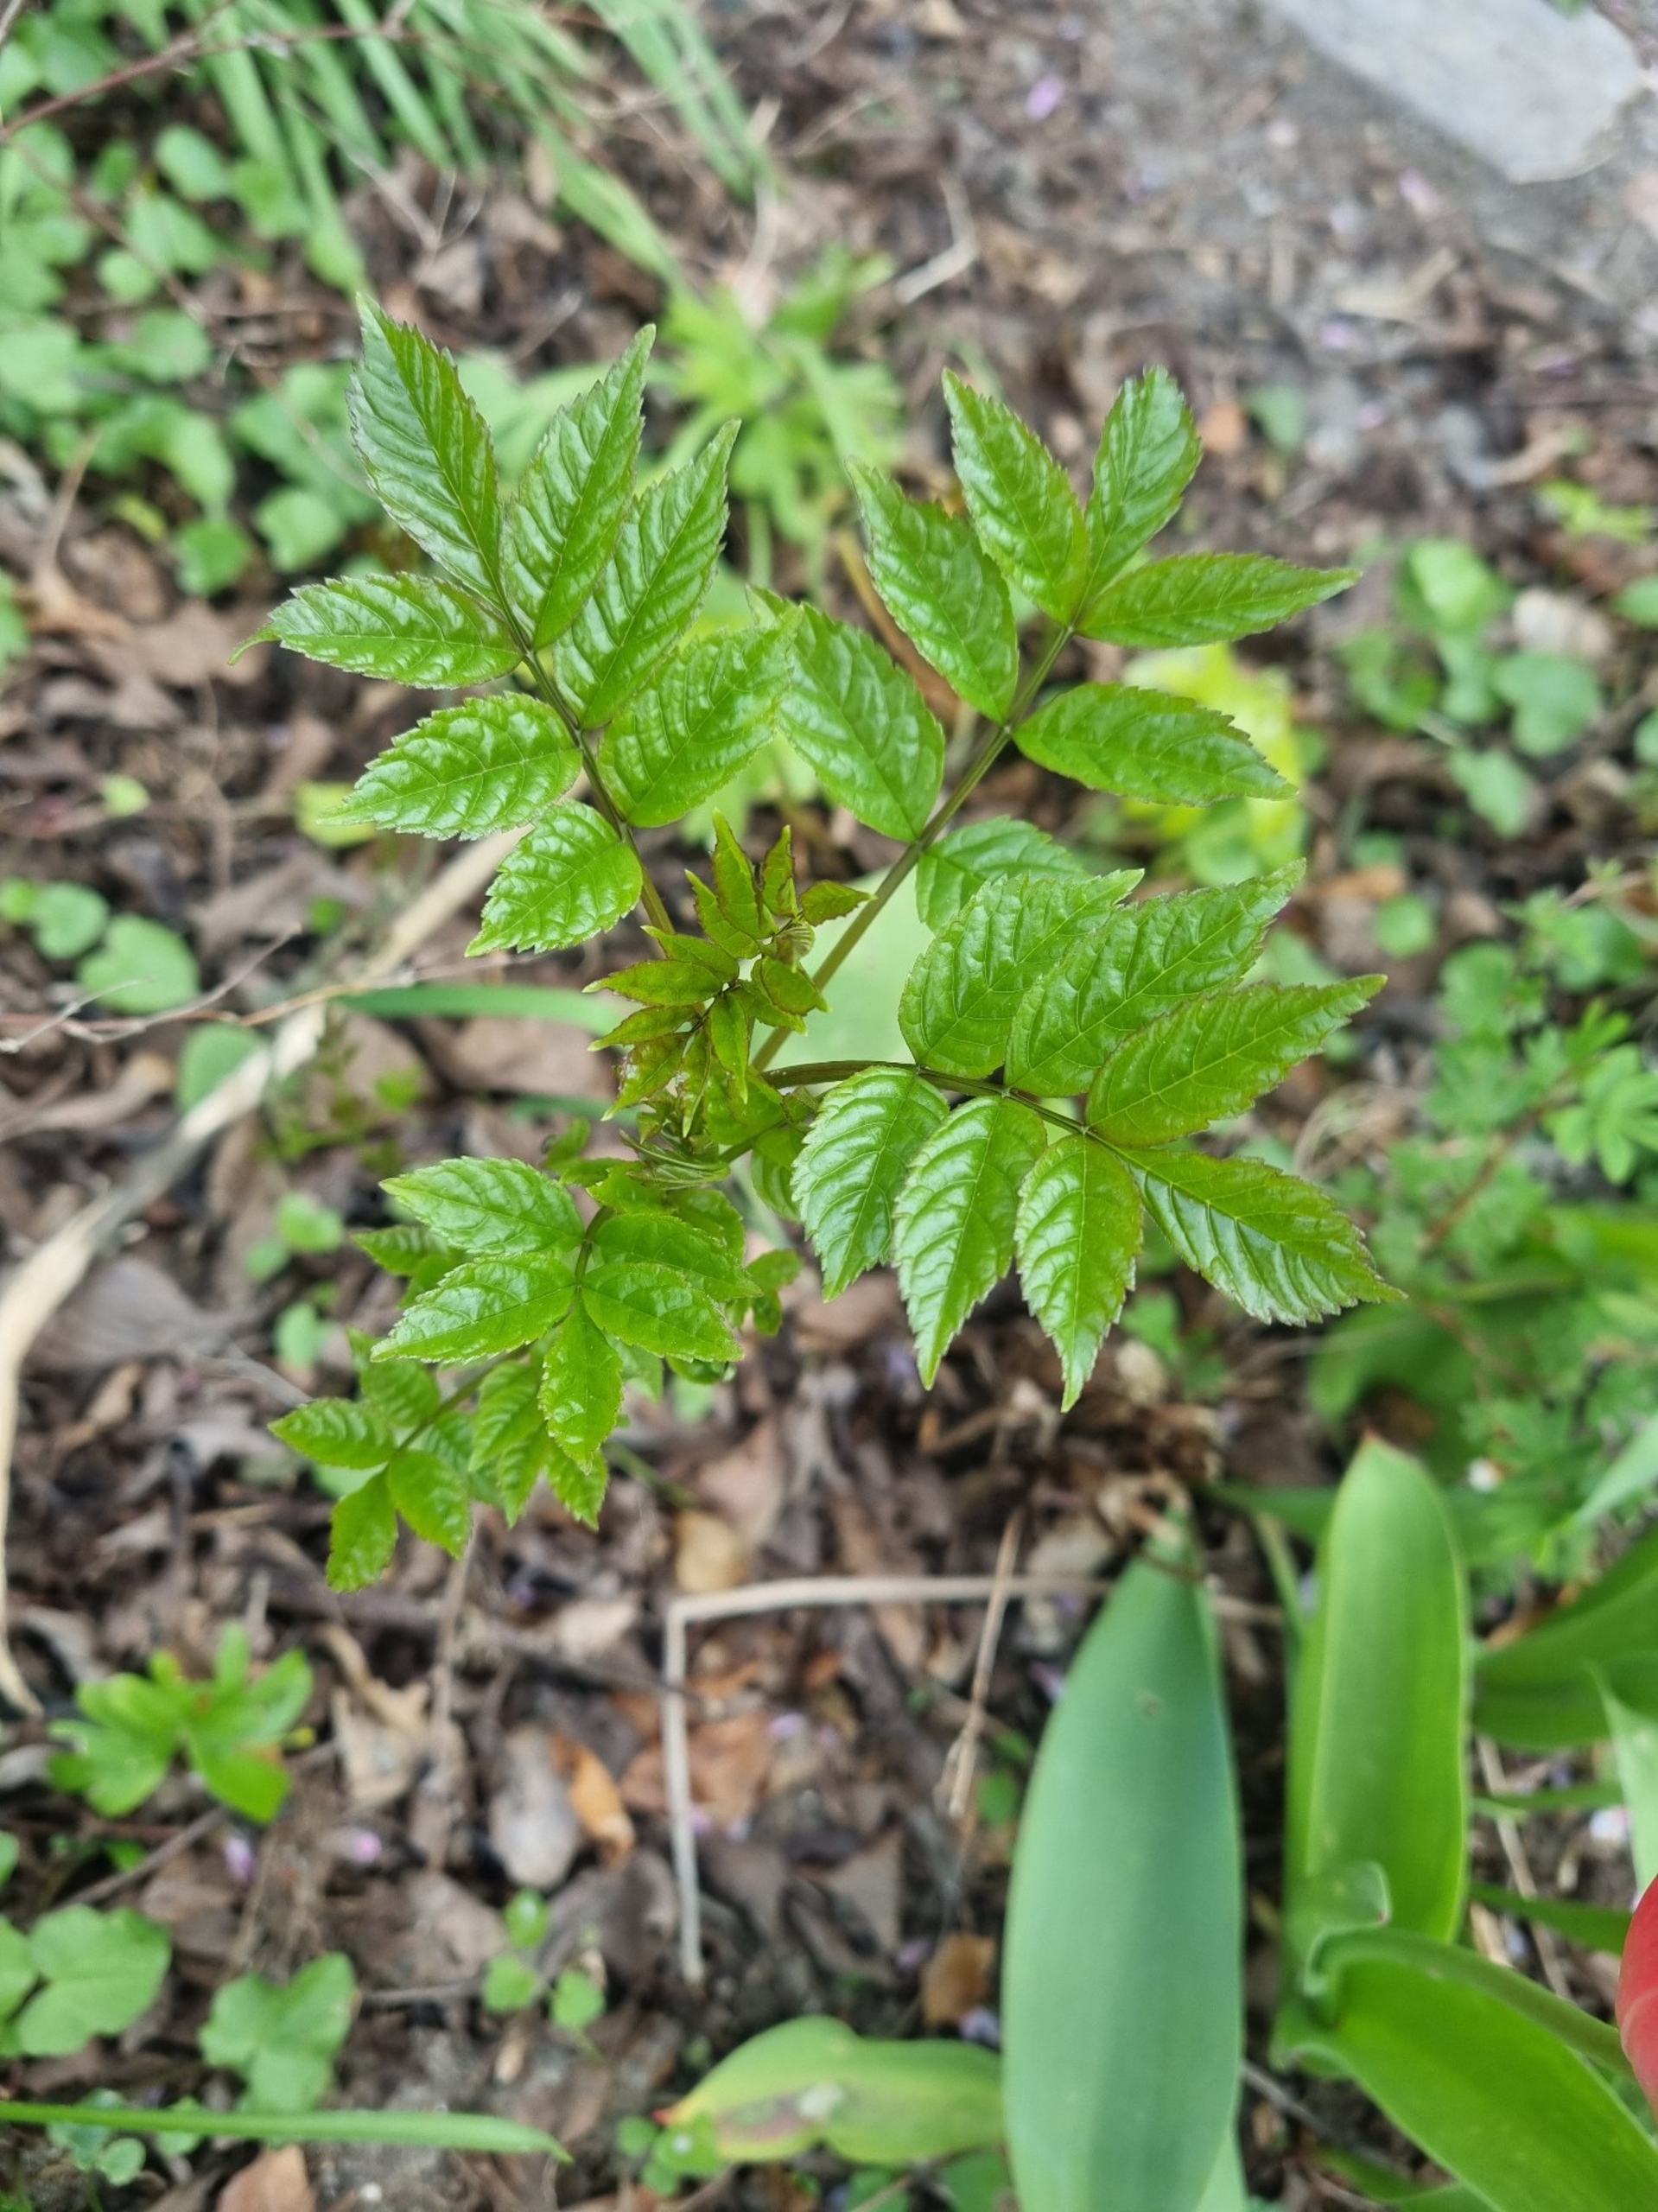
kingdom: Plantae
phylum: Tracheophyta
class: Magnoliopsida
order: Lamiales
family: Oleaceae
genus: Fraxinus
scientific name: Fraxinus excelsior
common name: Ask
